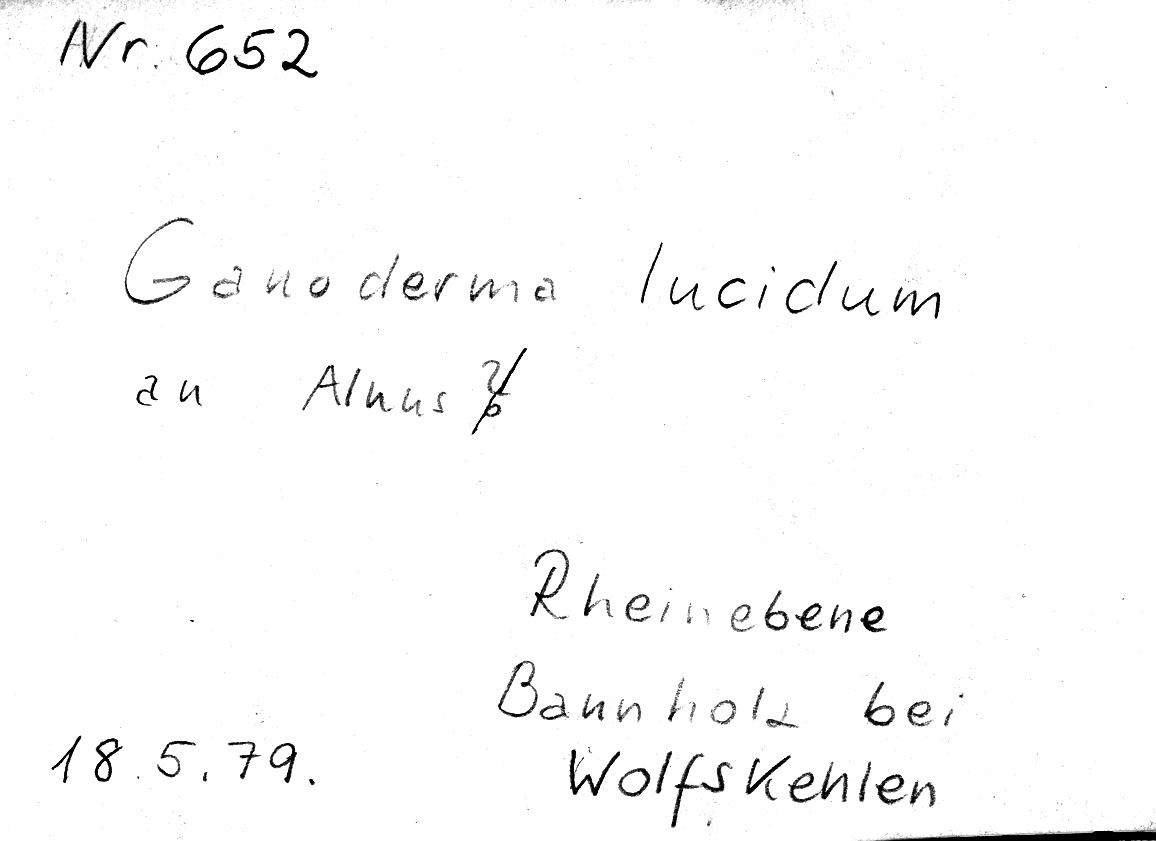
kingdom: Fungi
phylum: Basidiomycota
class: Agaricomycetes
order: Polyporales
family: Polyporaceae
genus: Ganoderma
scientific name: Ganoderma lucidum
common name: Lacquered bracket
